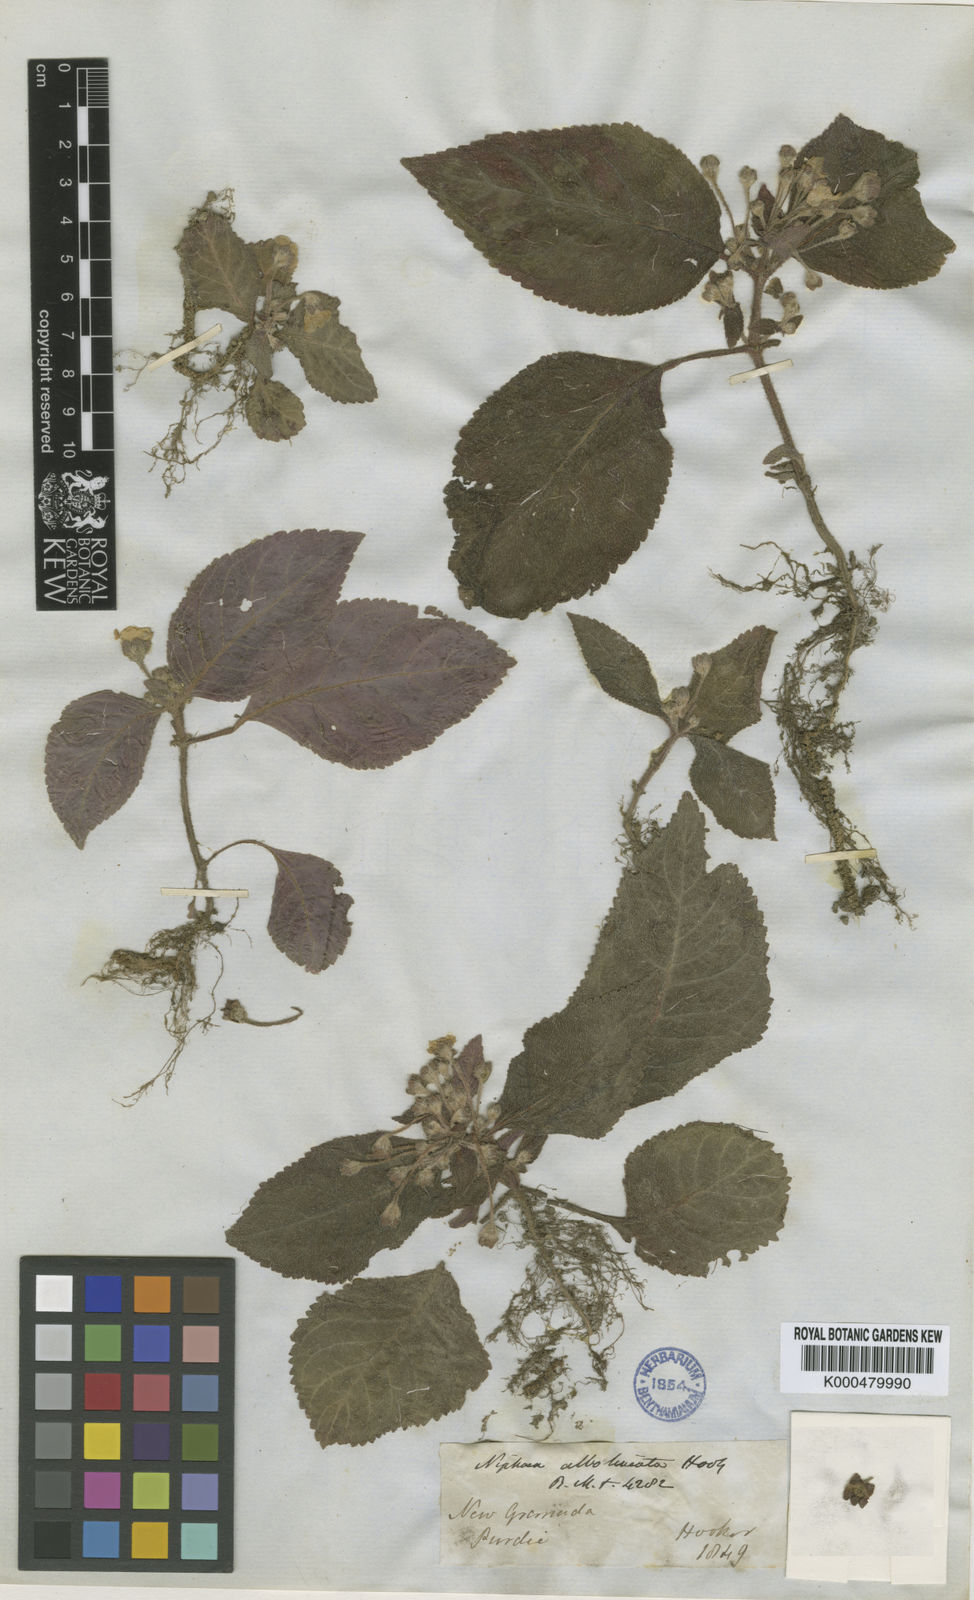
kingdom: Plantae
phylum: Tracheophyta
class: Magnoliopsida
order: Lamiales
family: Gesneriaceae
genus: Phinaea
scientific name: Phinaea albolineata
